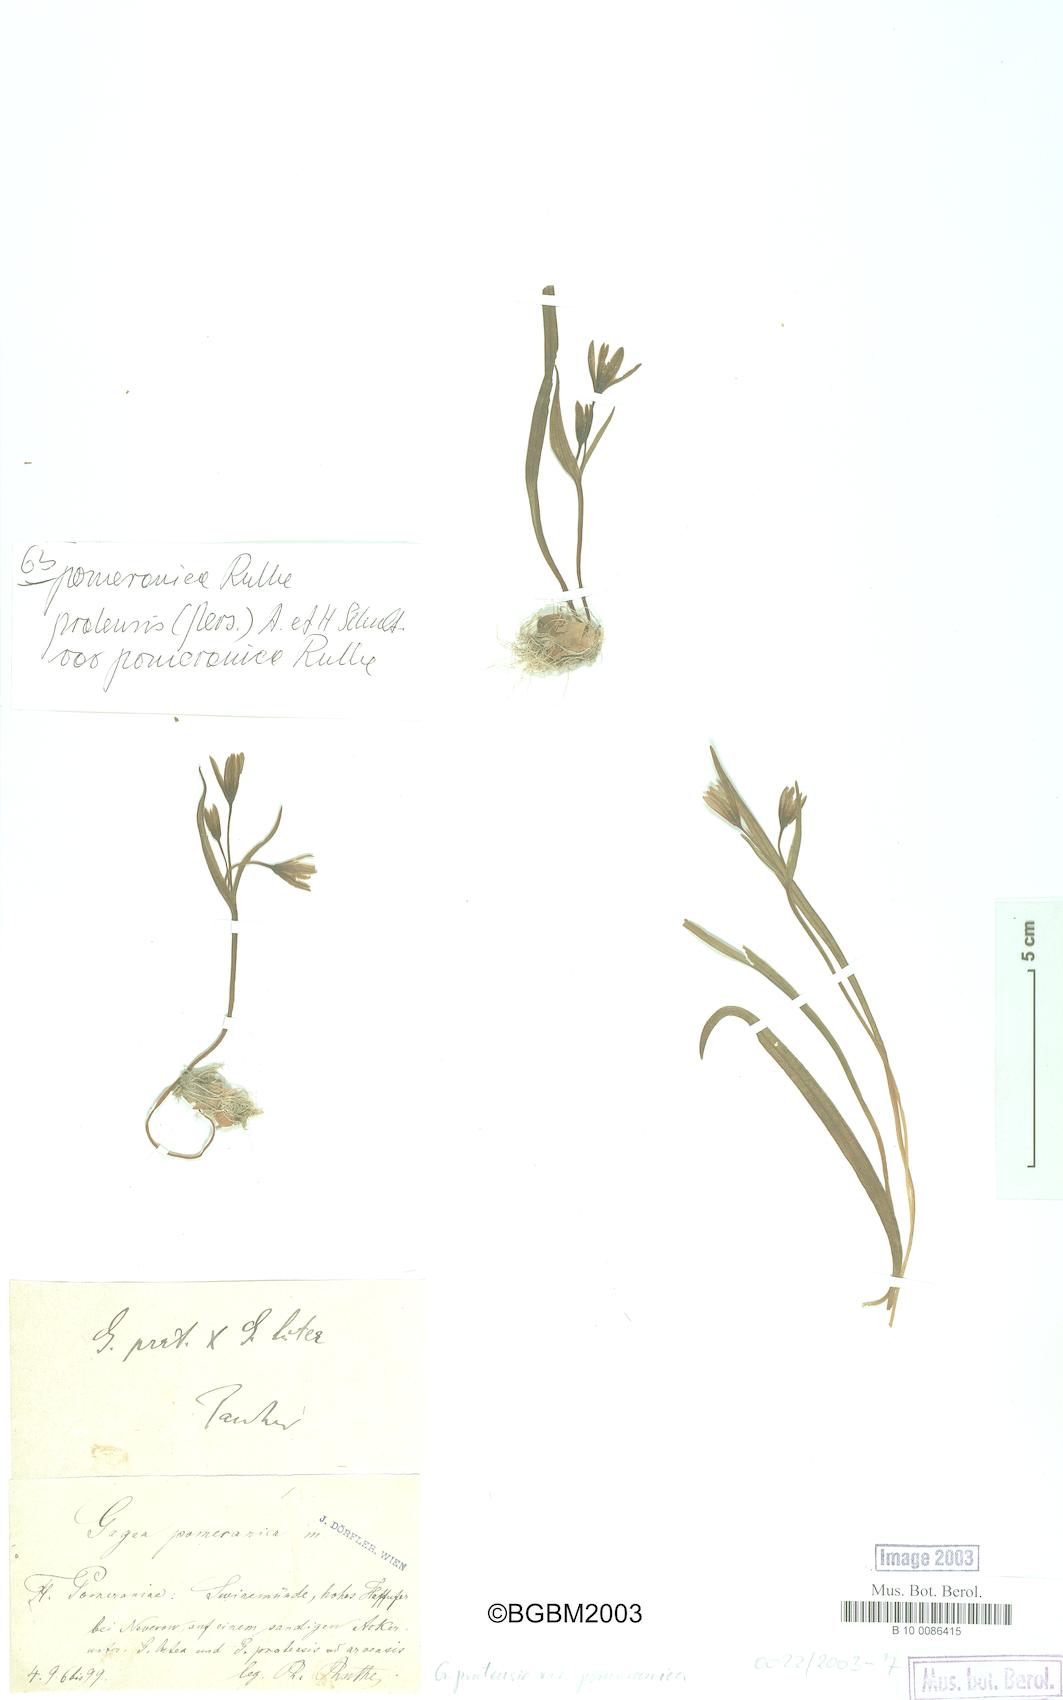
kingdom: Plantae
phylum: Tracheophyta
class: Liliopsida
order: Liliales
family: Liliaceae
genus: Gagea
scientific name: Gagea pomeranica
